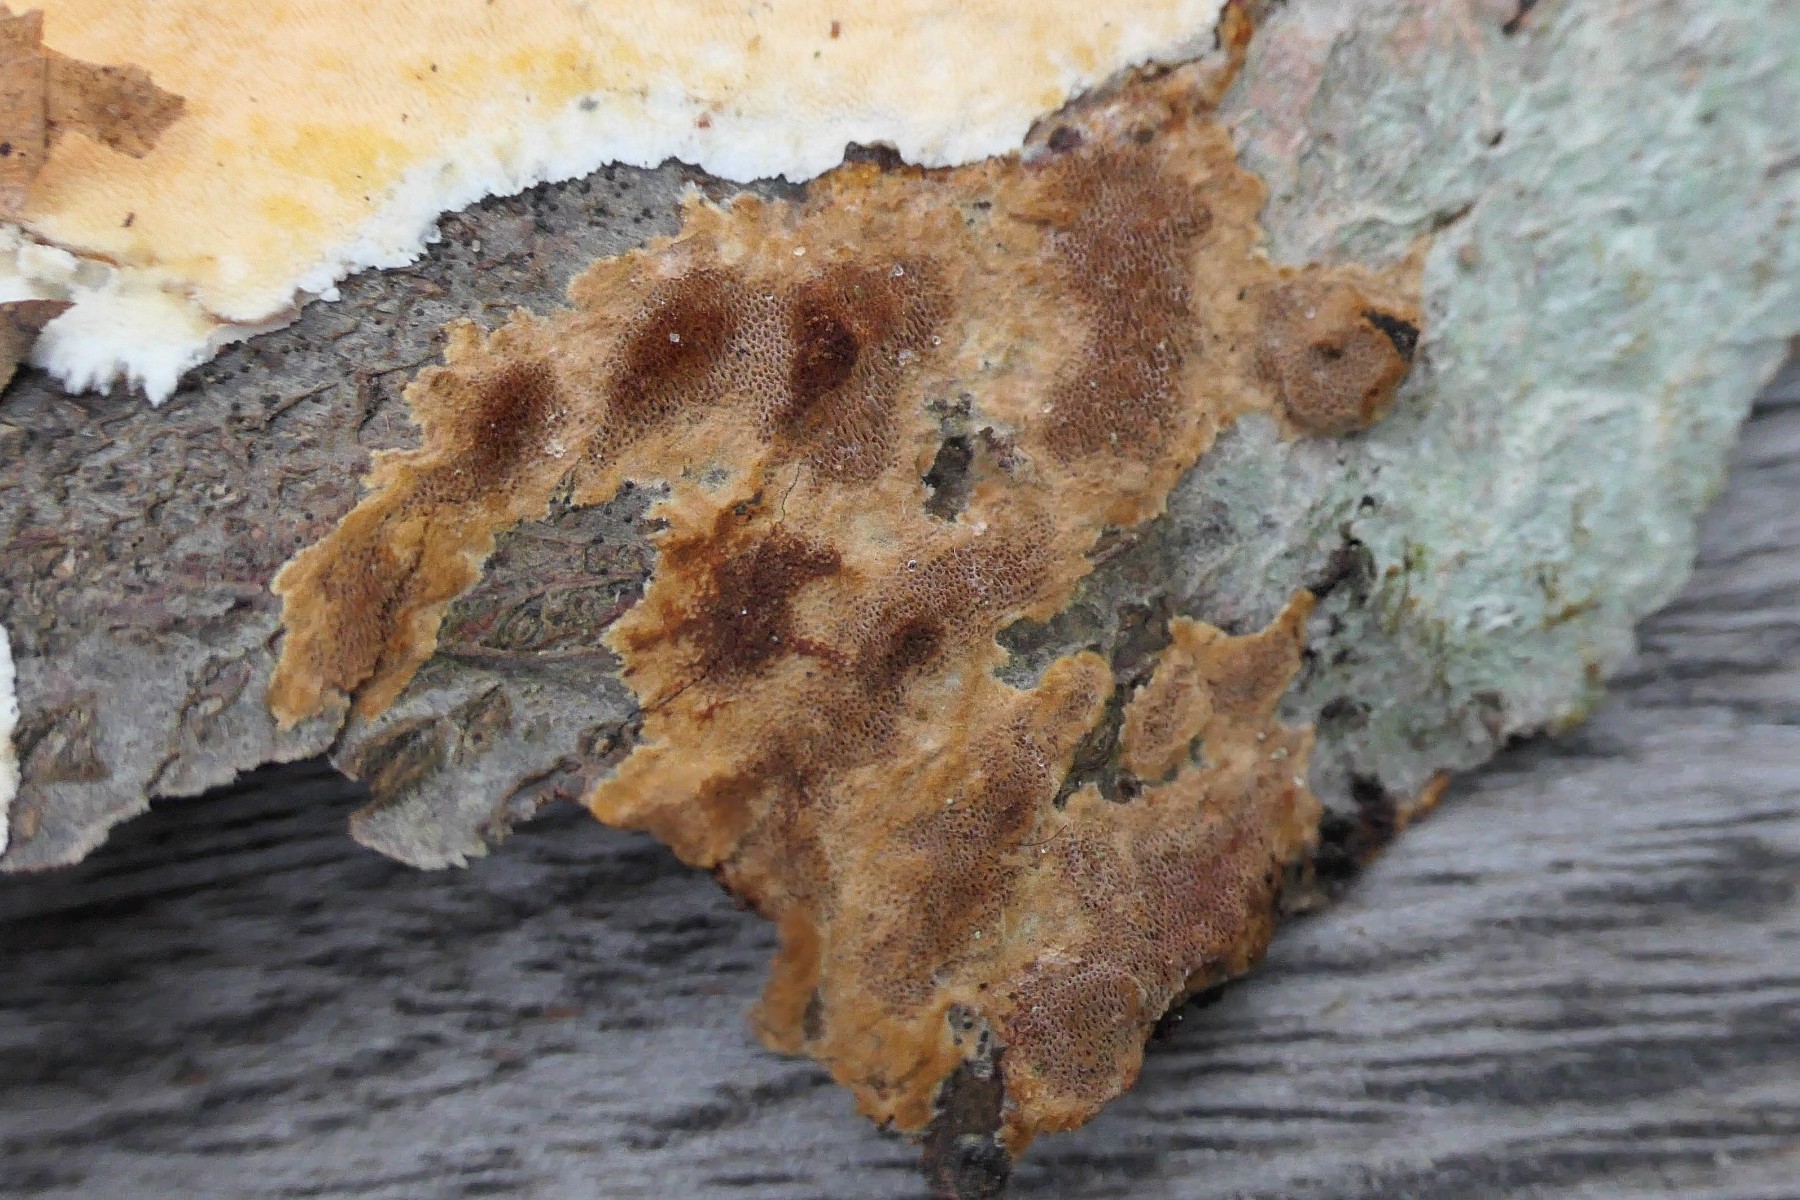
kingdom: Fungi
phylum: Basidiomycota
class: Agaricomycetes
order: Hymenochaetales
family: Hymenochaetaceae
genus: Fuscoporia
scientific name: Fuscoporia ferrea
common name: skorpe-ildporesvamp
